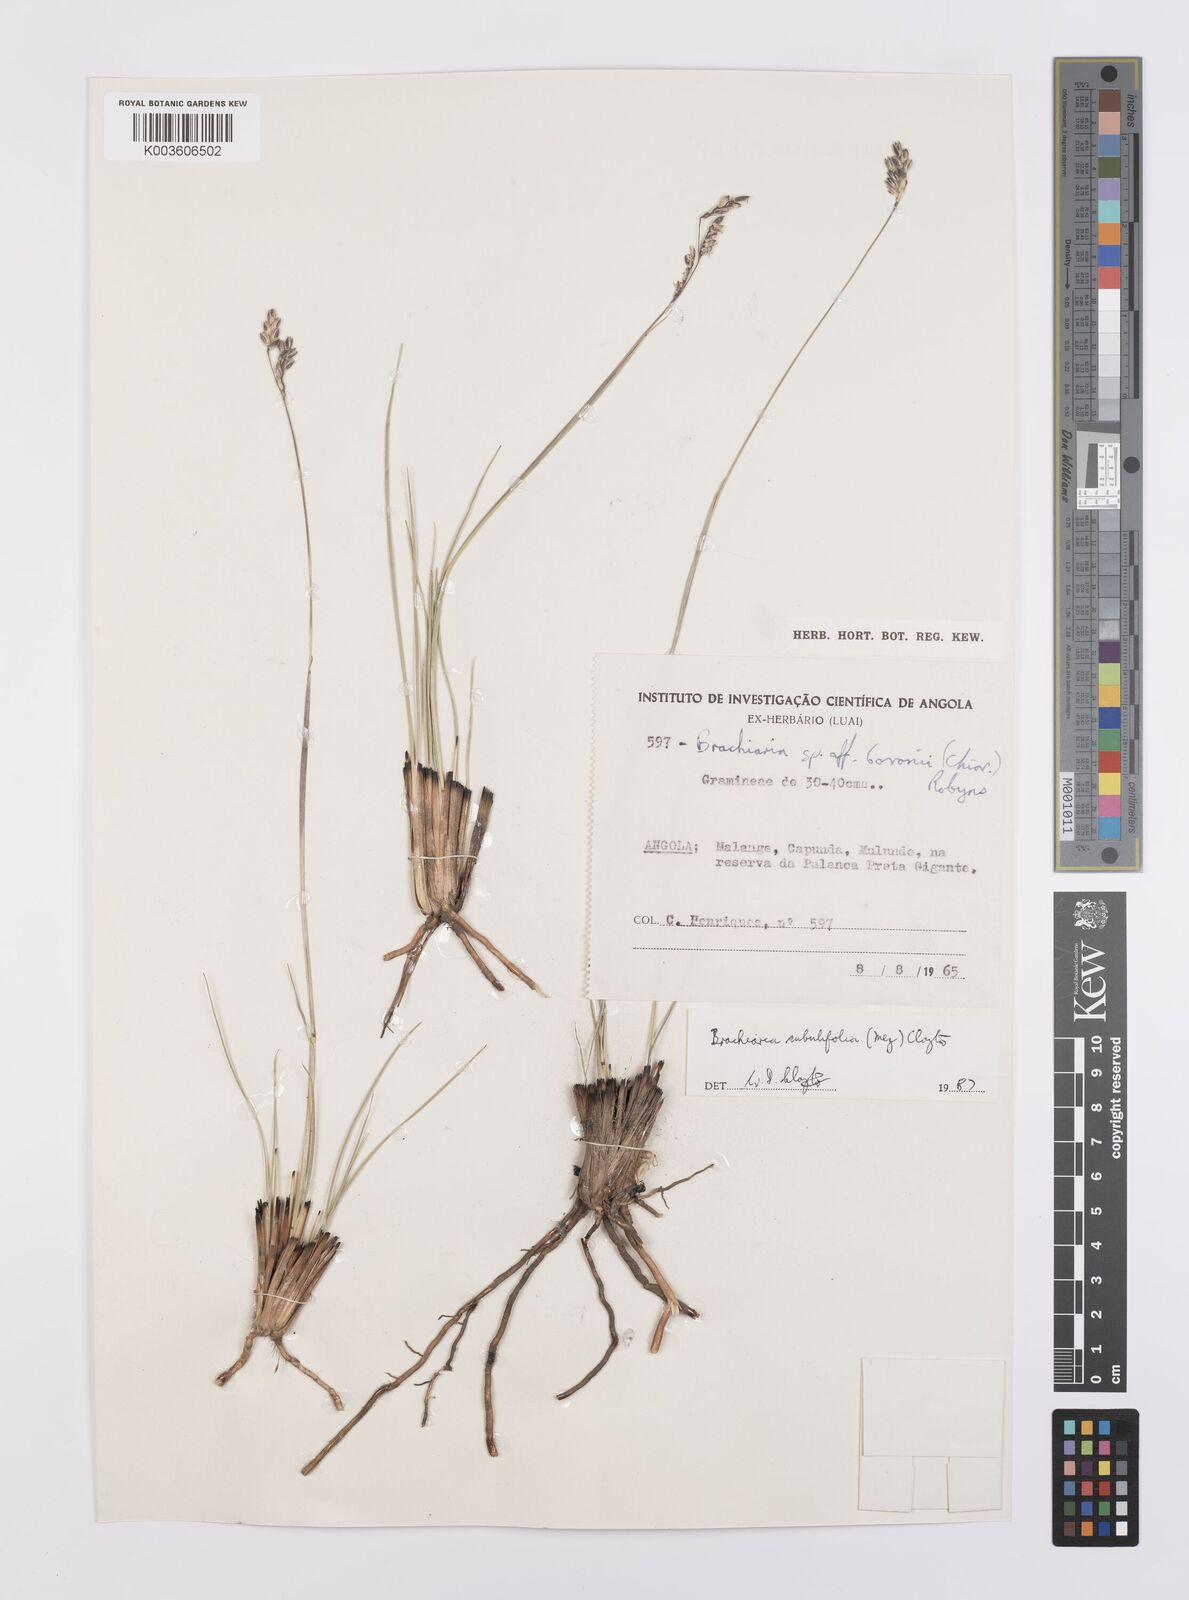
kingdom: Plantae
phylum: Tracheophyta
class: Liliopsida
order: Poales
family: Poaceae
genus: Urochloa
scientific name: Urochloa subulifolia
